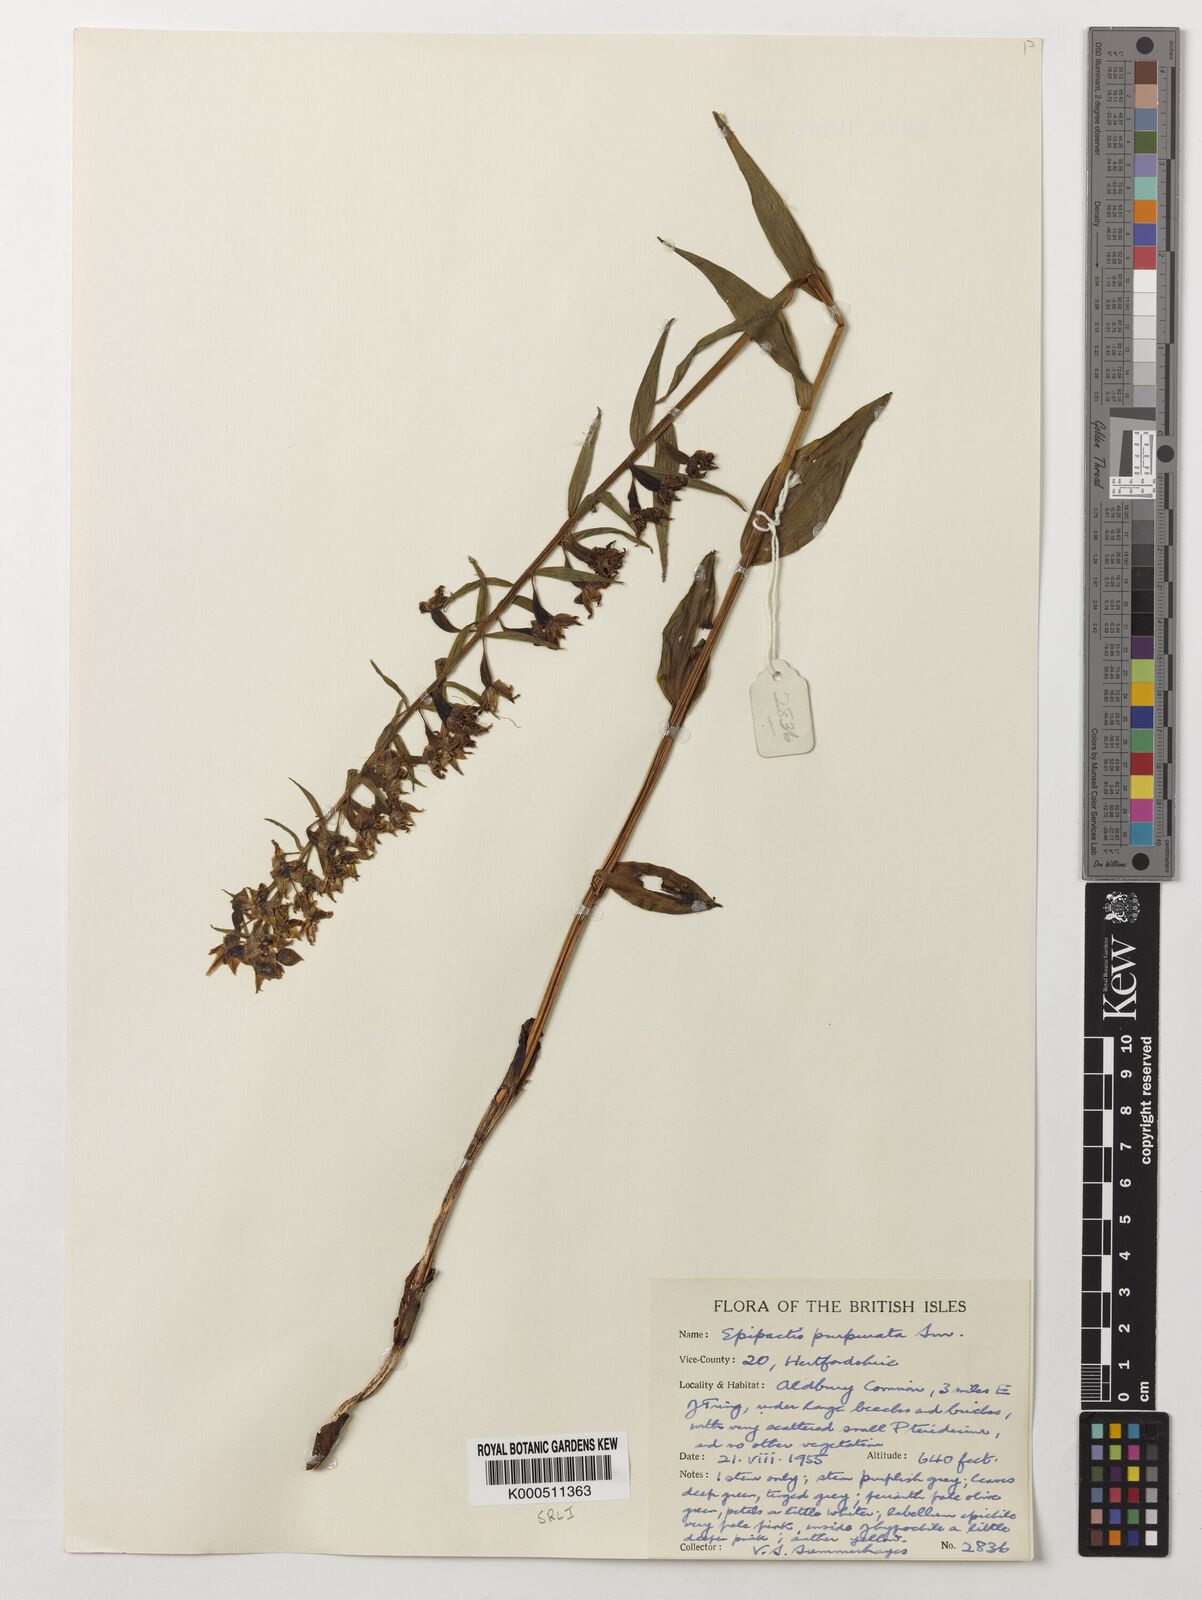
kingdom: Plantae
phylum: Tracheophyta
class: Liliopsida
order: Asparagales
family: Orchidaceae
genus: Epipactis
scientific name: Epipactis purpurata
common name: Violet helleborine
